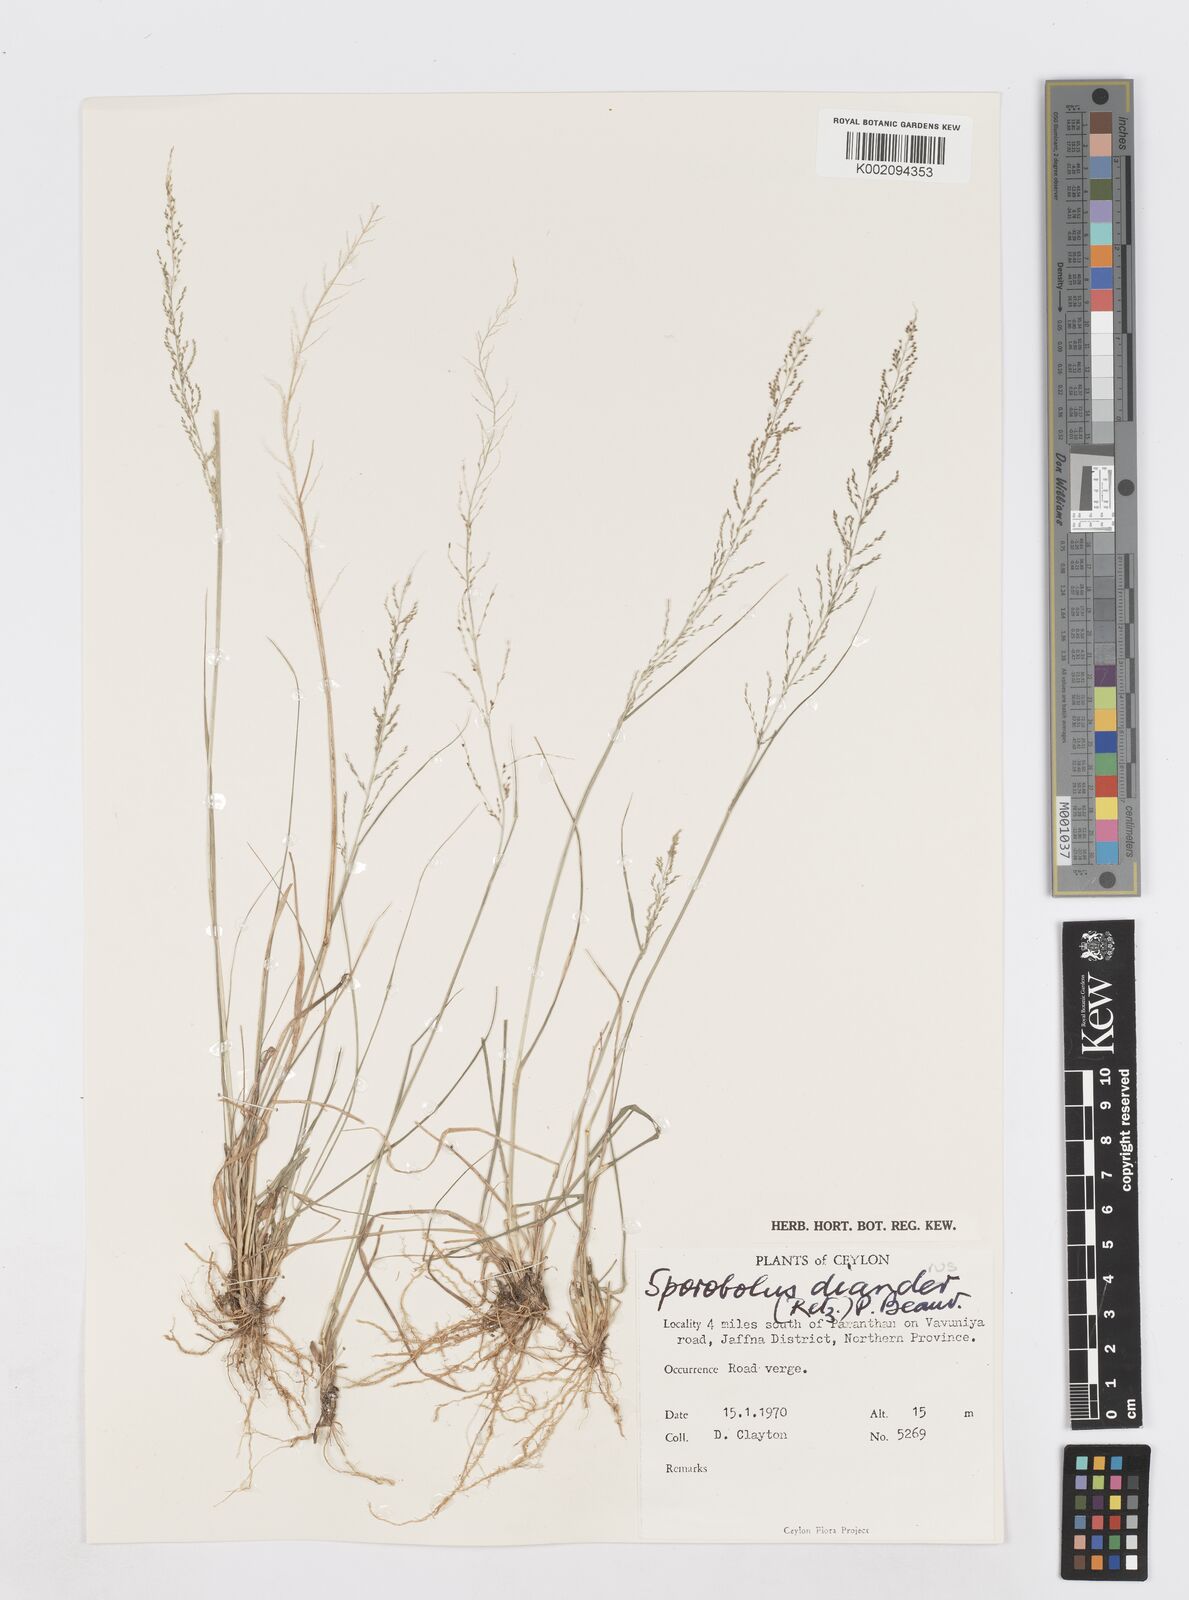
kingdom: Plantae
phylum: Tracheophyta
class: Liliopsida
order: Poales
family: Poaceae
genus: Sporobolus
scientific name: Sporobolus diandrus
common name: Tussock dropseed
